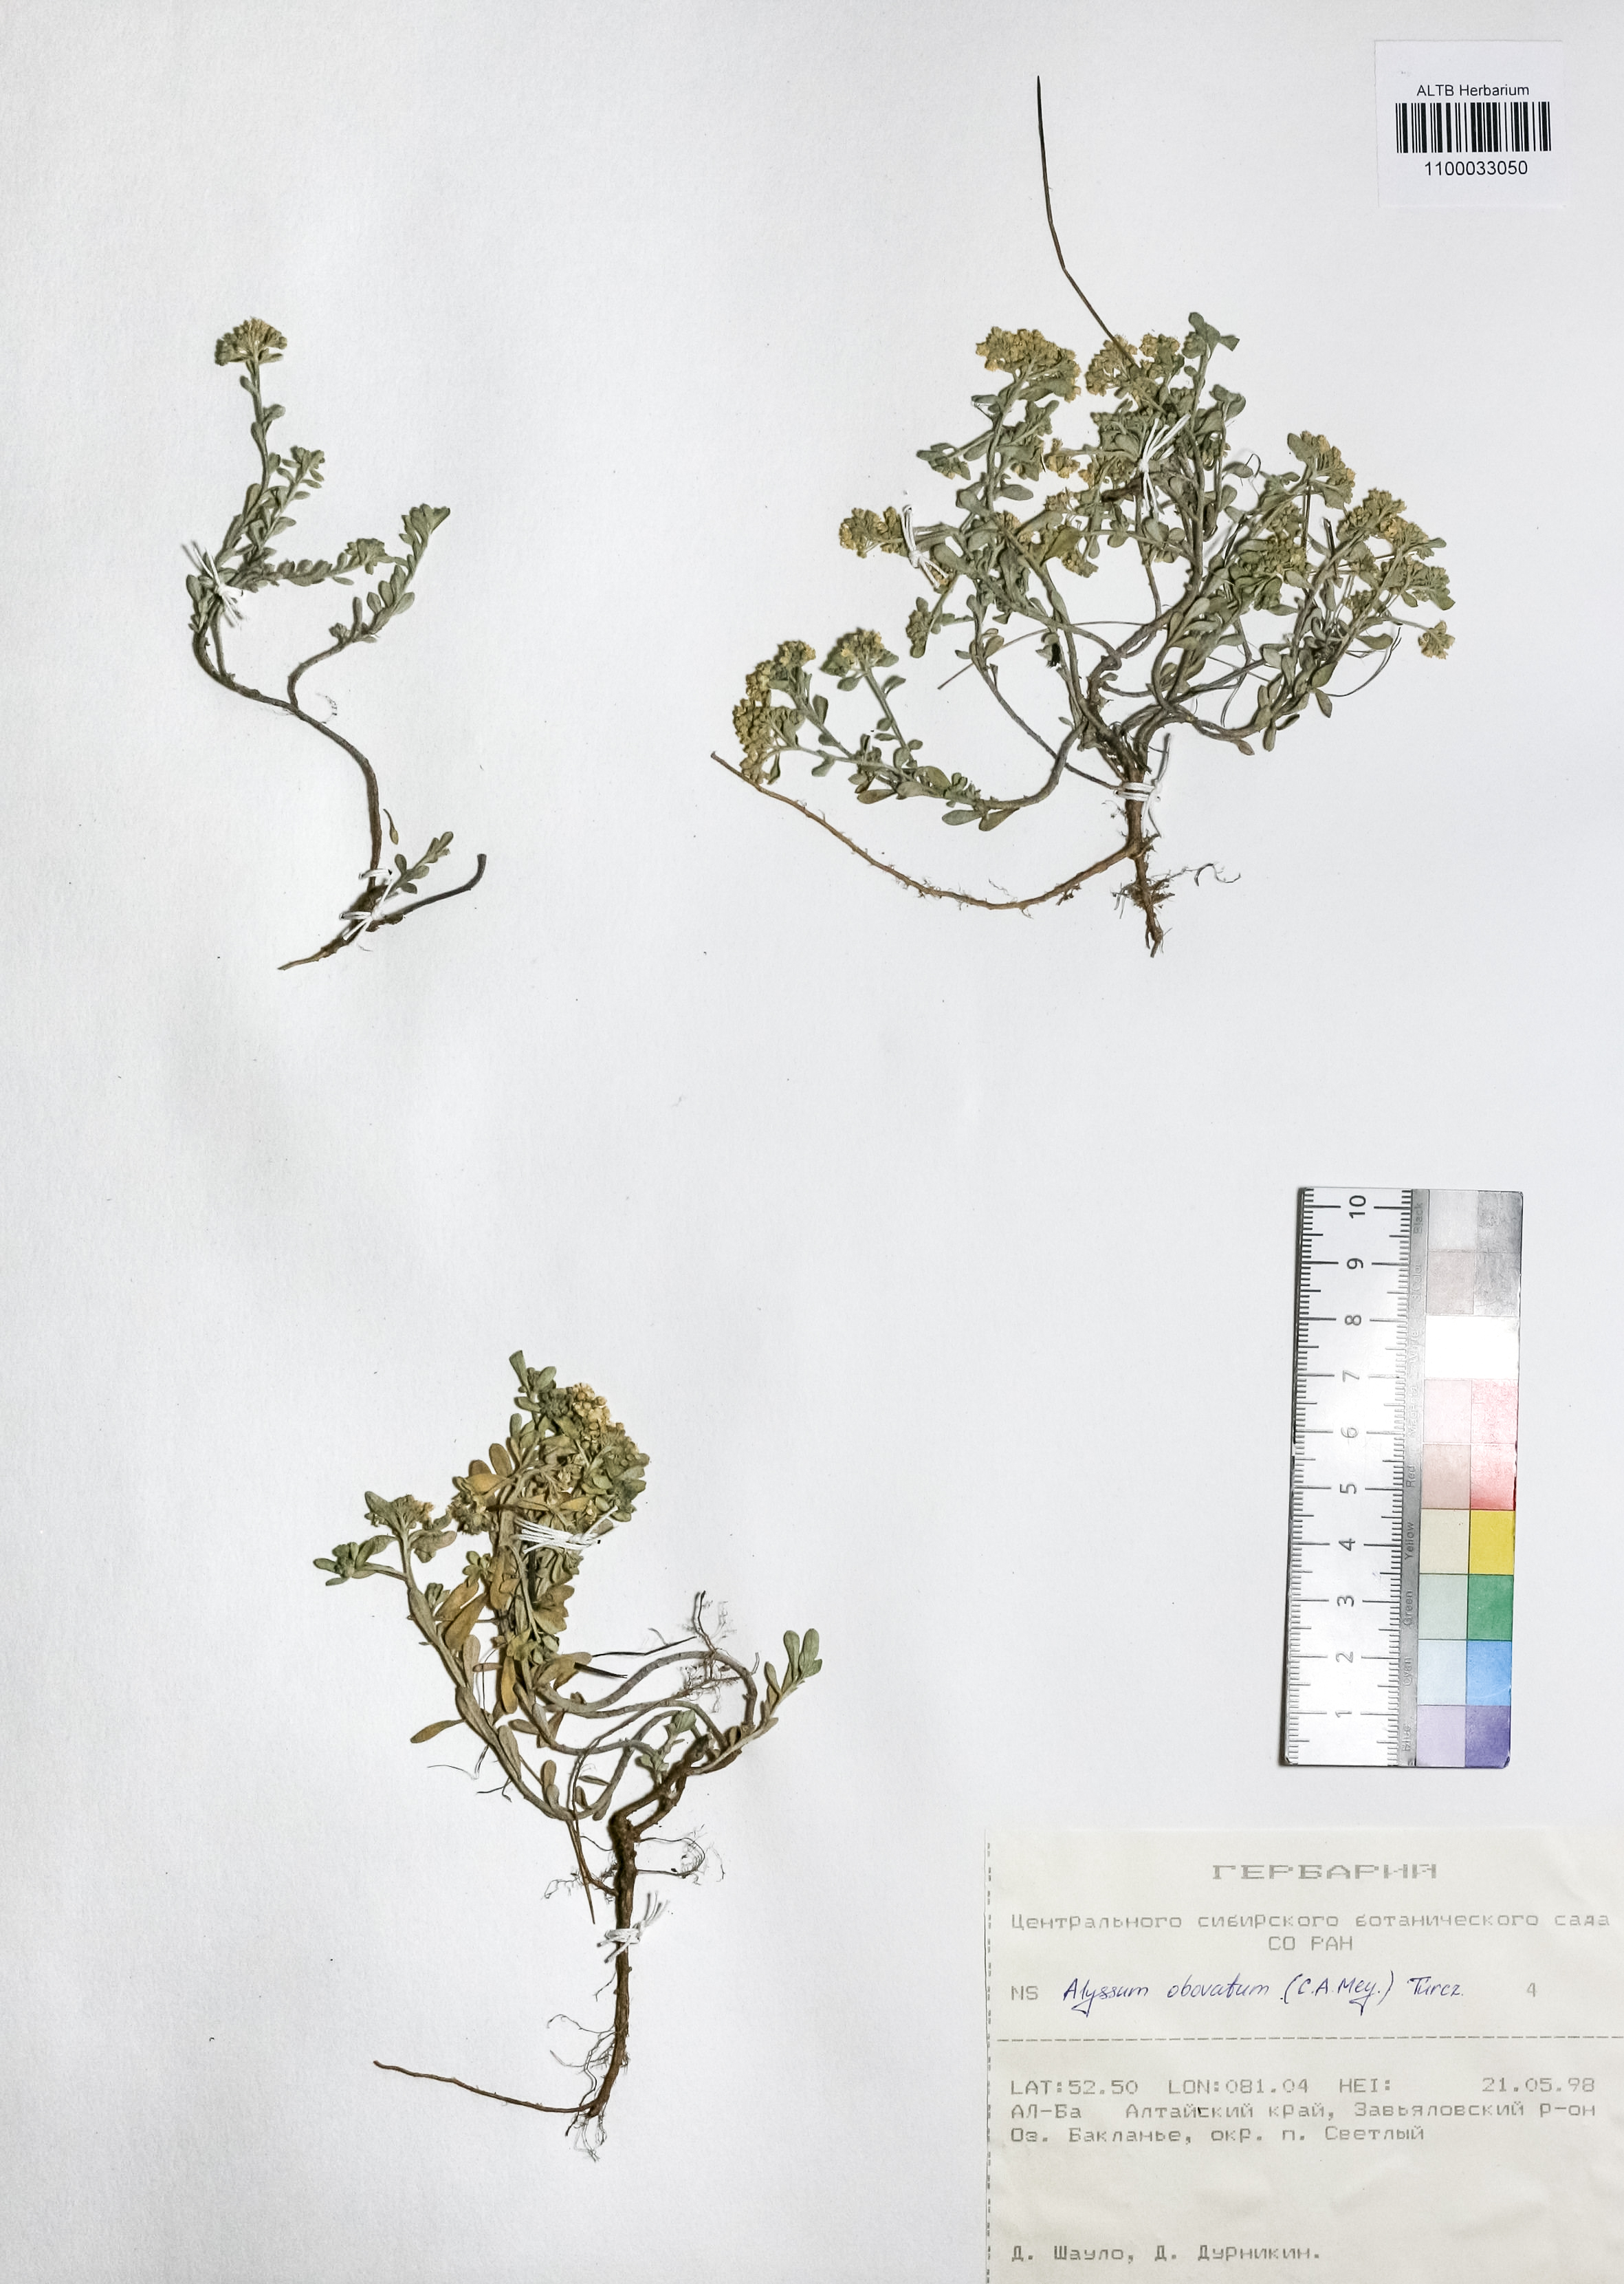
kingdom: Plantae
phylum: Tracheophyta
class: Magnoliopsida
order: Brassicales
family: Brassicaceae
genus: Odontarrhena
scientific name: Odontarrhena obovata
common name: American alyssum
